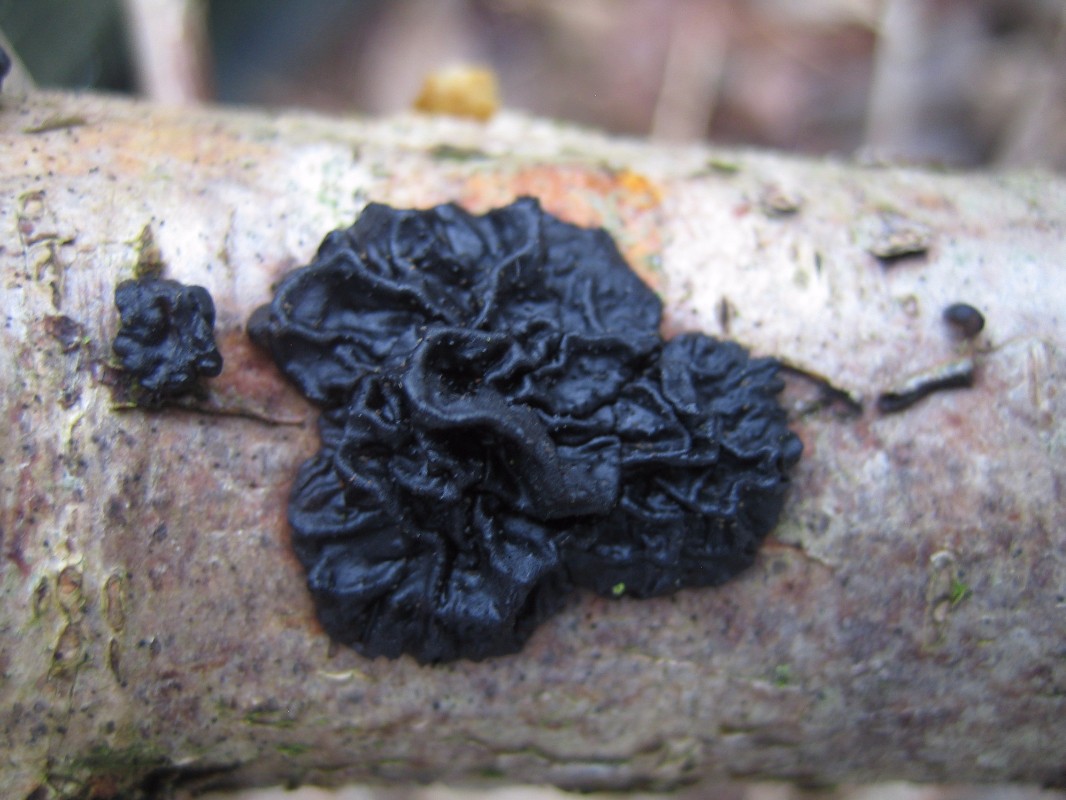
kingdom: Fungi
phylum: Basidiomycota
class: Agaricomycetes
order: Auriculariales
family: Auriculariaceae
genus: Exidia
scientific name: Exidia glandulosa
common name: ege-bævretop
